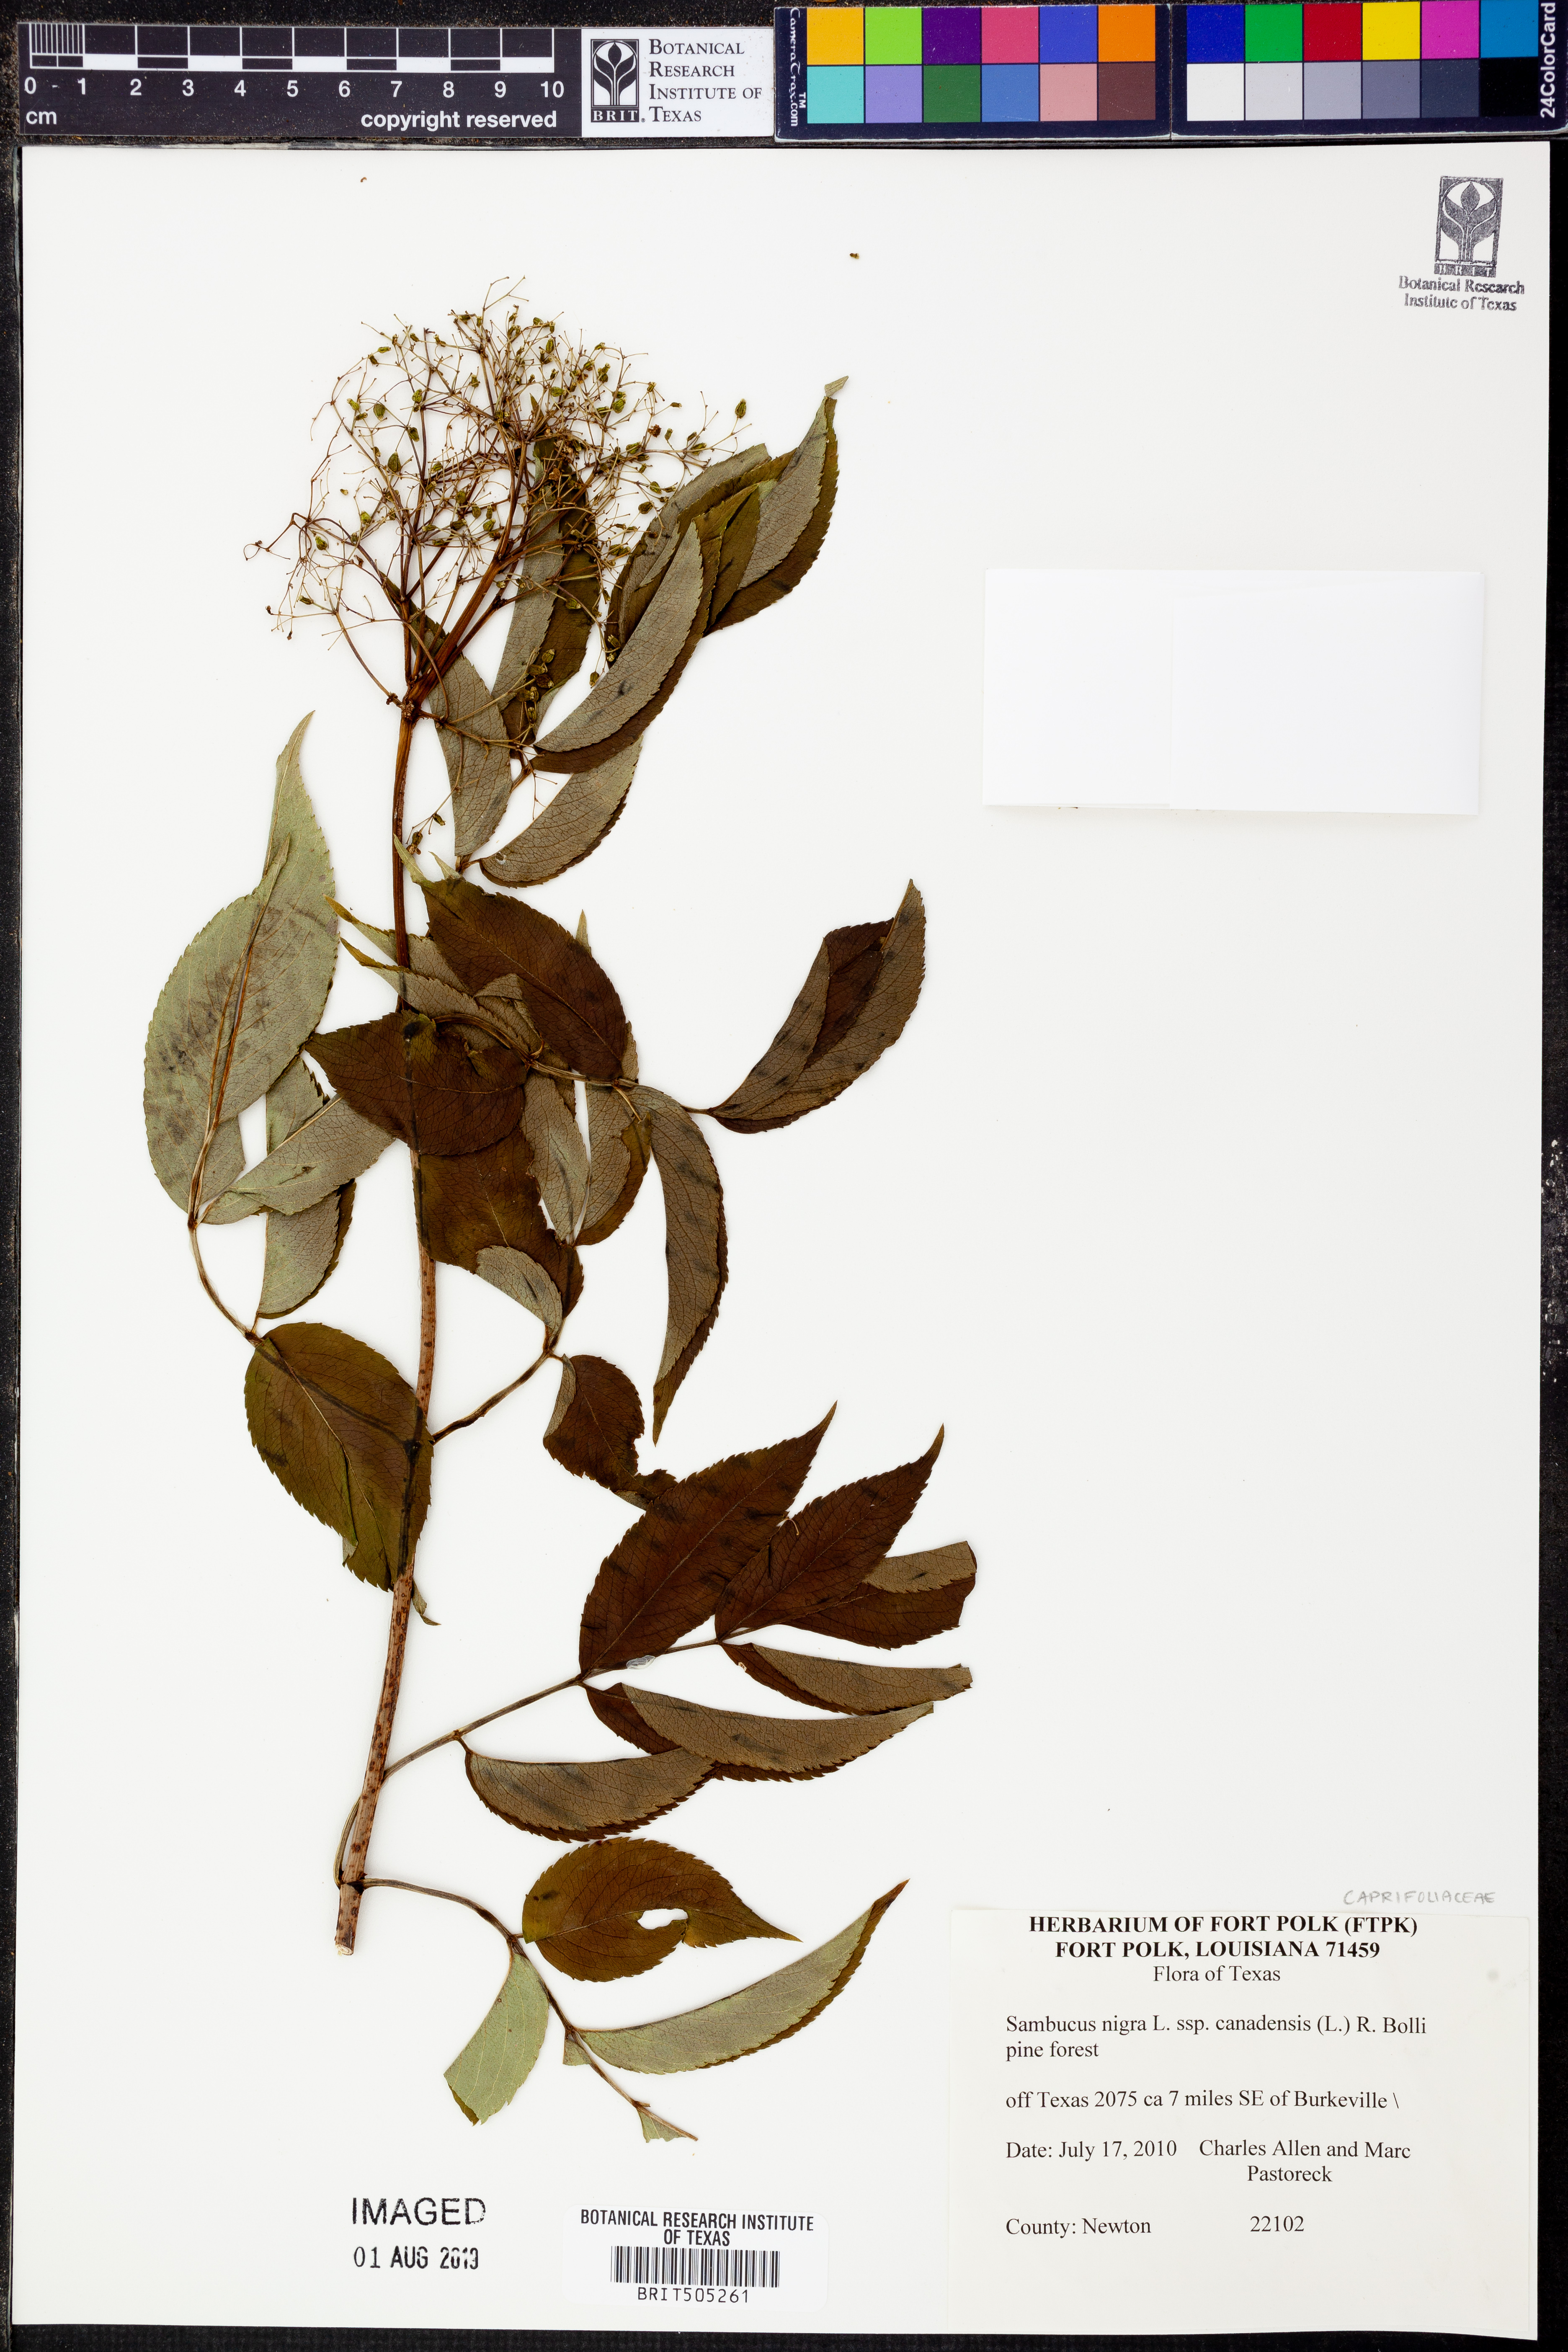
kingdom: Plantae
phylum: Tracheophyta
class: Magnoliopsida
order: Dipsacales
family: Viburnaceae
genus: Sambucus
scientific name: Sambucus canadensis
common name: American elder
